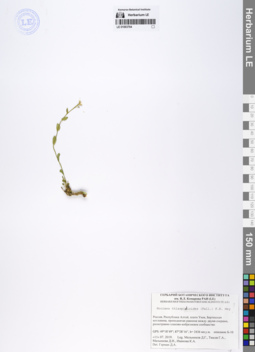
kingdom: Plantae
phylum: Tracheophyta
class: Magnoliopsida
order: Brassicales
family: Brassicaceae
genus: Noccaea
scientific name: Noccaea thlaspidioides
